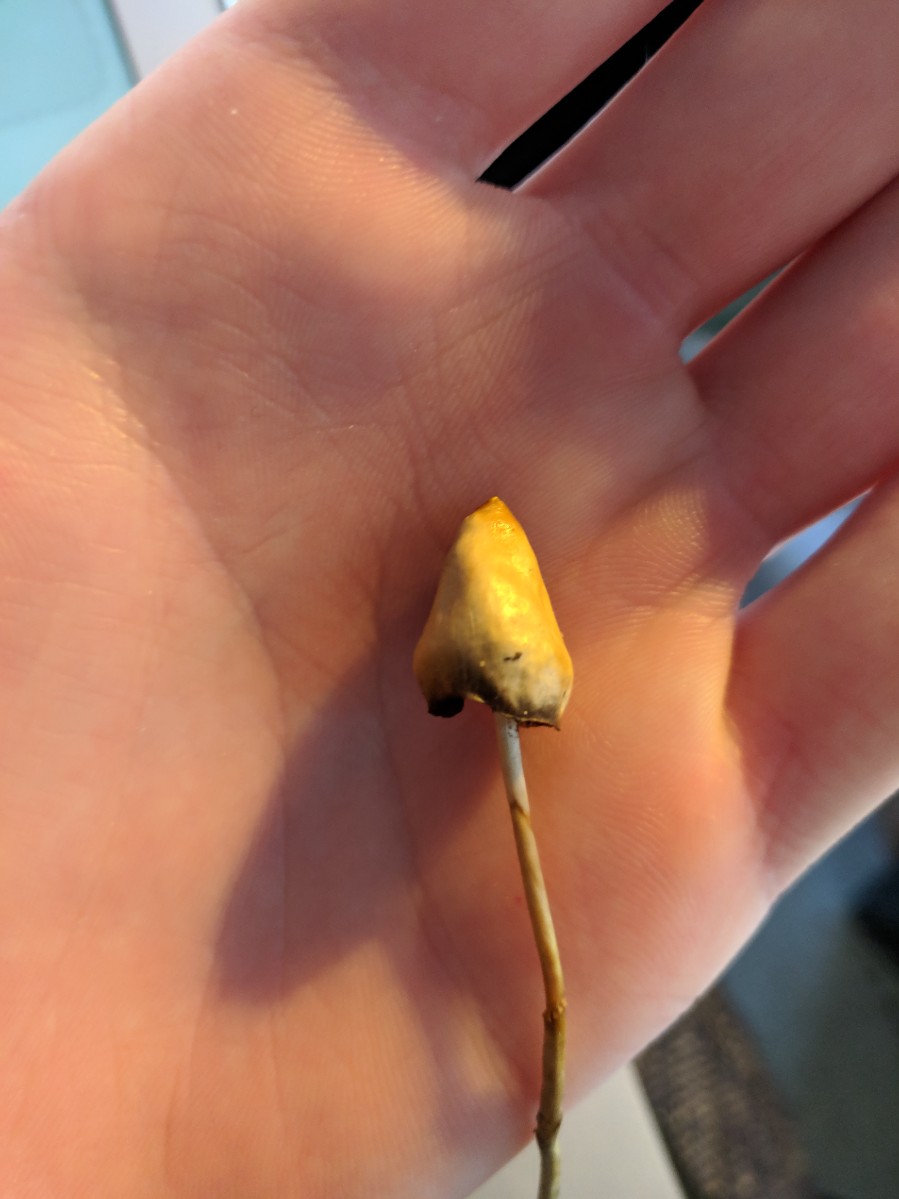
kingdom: Fungi
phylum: Basidiomycota
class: Agaricomycetes
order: Agaricales
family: Hymenogastraceae
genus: Psilocybe
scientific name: Psilocybe semilanceata
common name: spids nøgenhat
